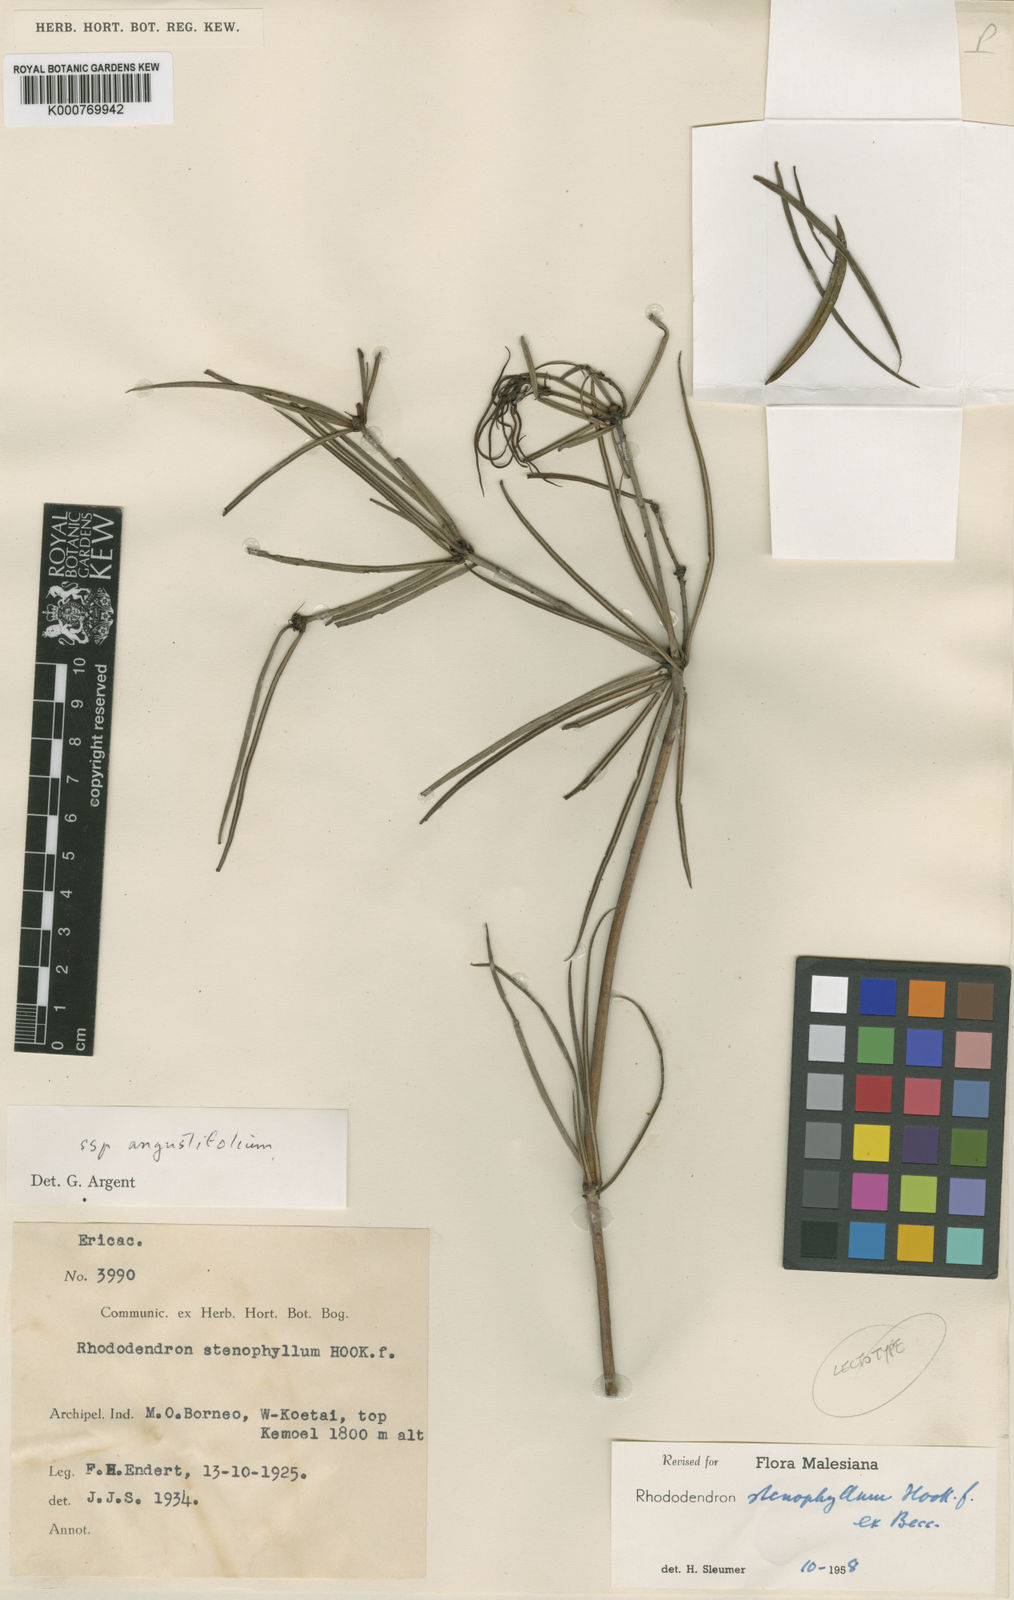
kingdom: Plantae
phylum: Tracheophyta
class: Magnoliopsida
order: Ericales
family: Ericaceae
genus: Rhododendron
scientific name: Rhododendron stenophyllum
